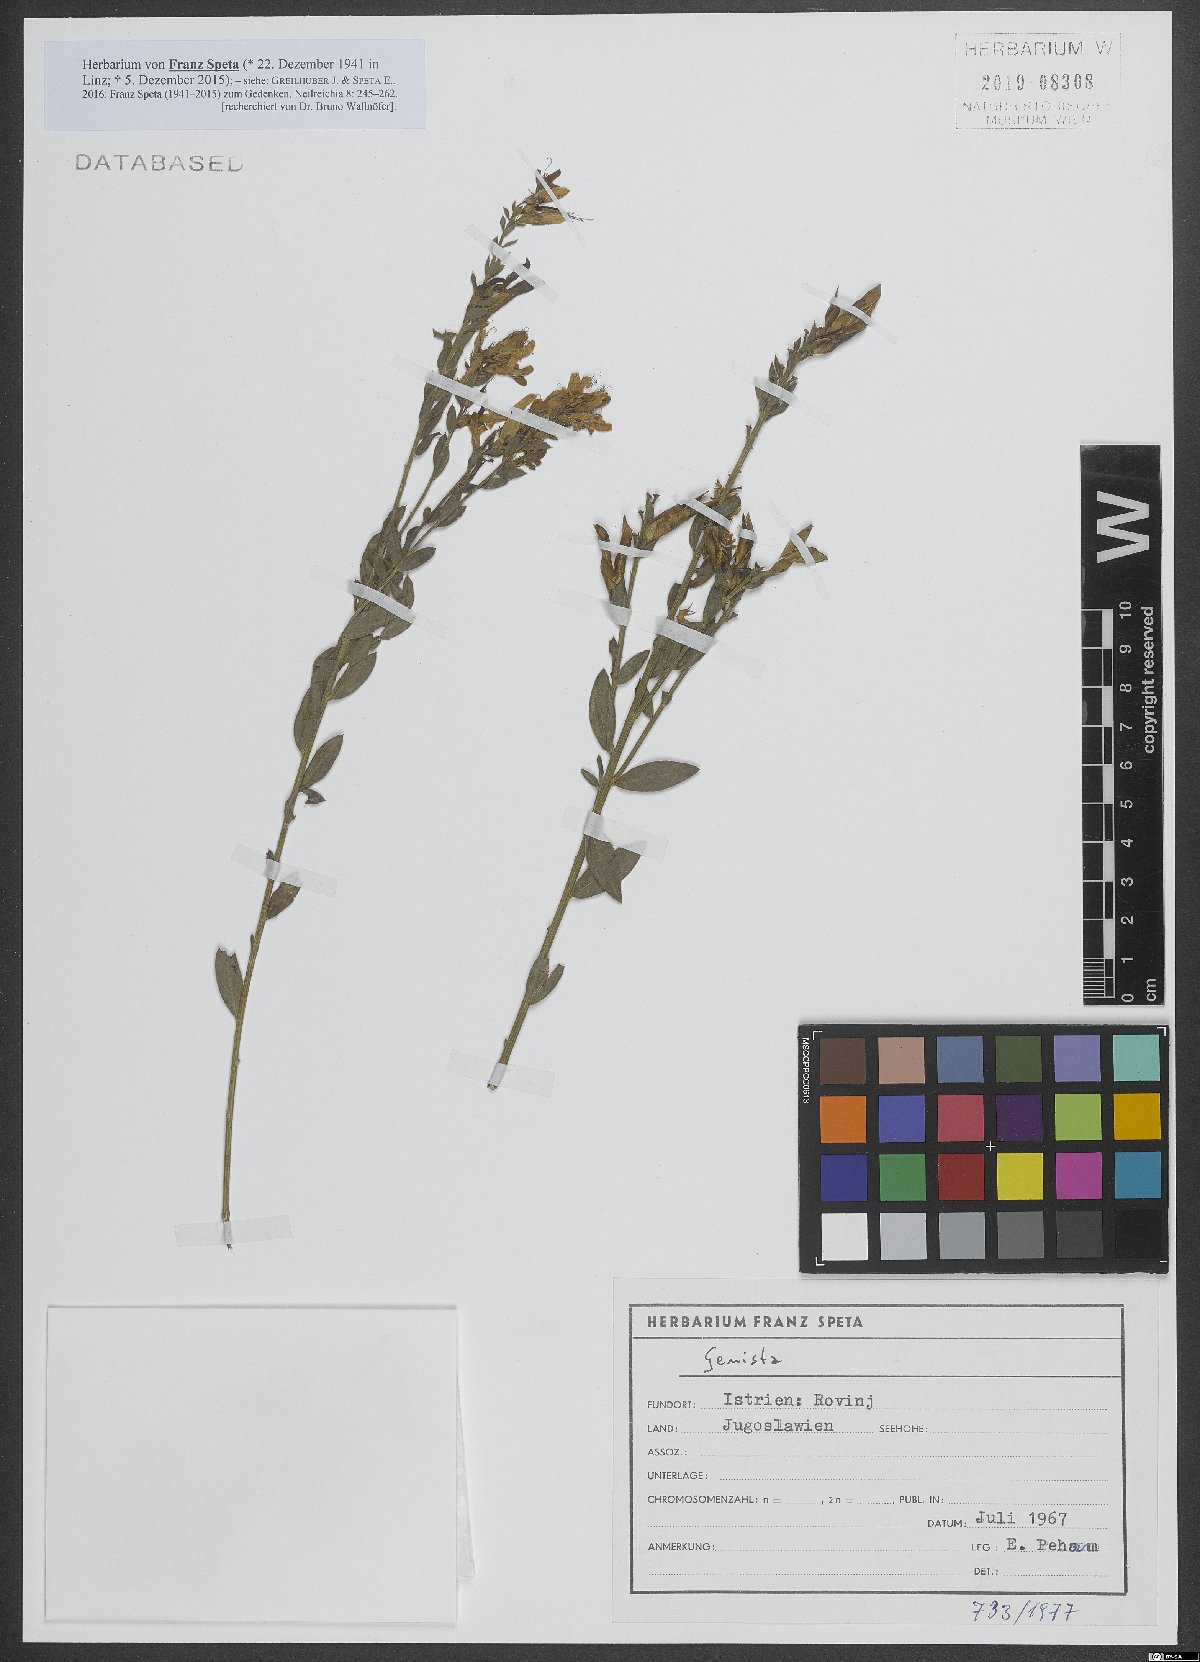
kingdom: Plantae
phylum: Tracheophyta
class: Magnoliopsida
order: Fabales
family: Fabaceae
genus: Genista
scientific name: Genista
